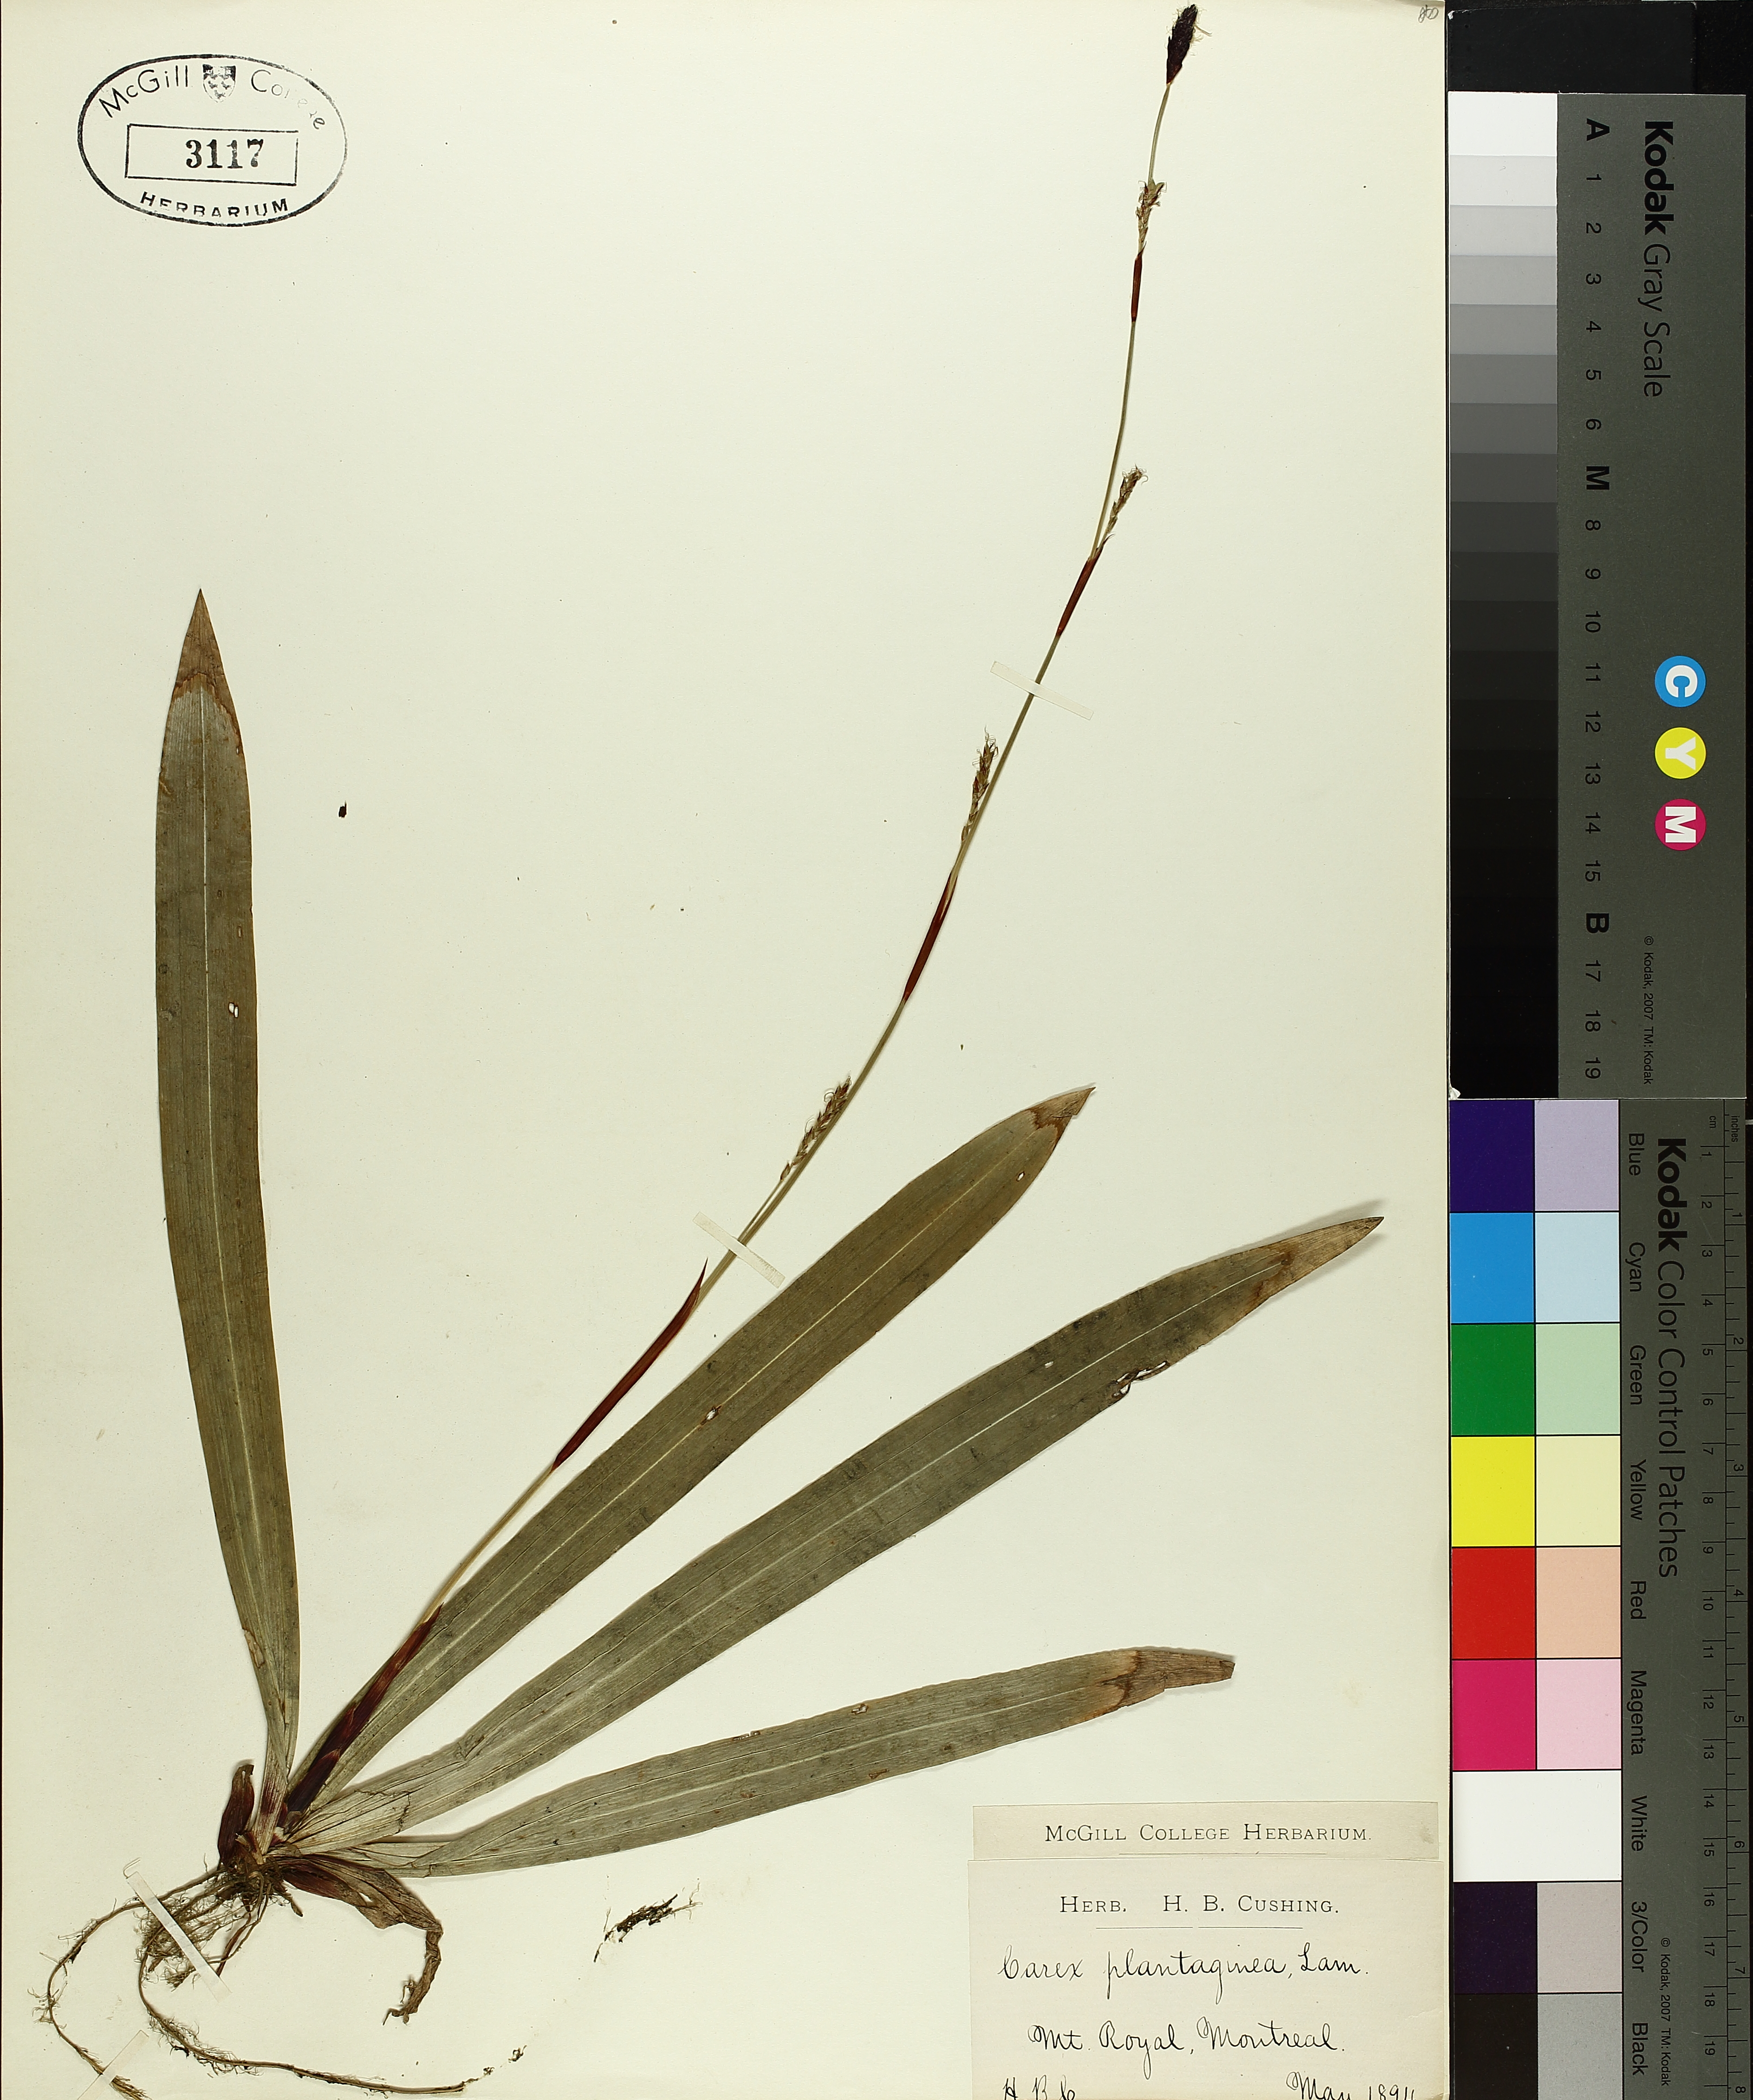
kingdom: Plantae
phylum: Tracheophyta
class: Liliopsida
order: Poales
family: Cyperaceae
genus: Carex
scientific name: Carex plantaginea
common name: Plantain-leaved sedge
